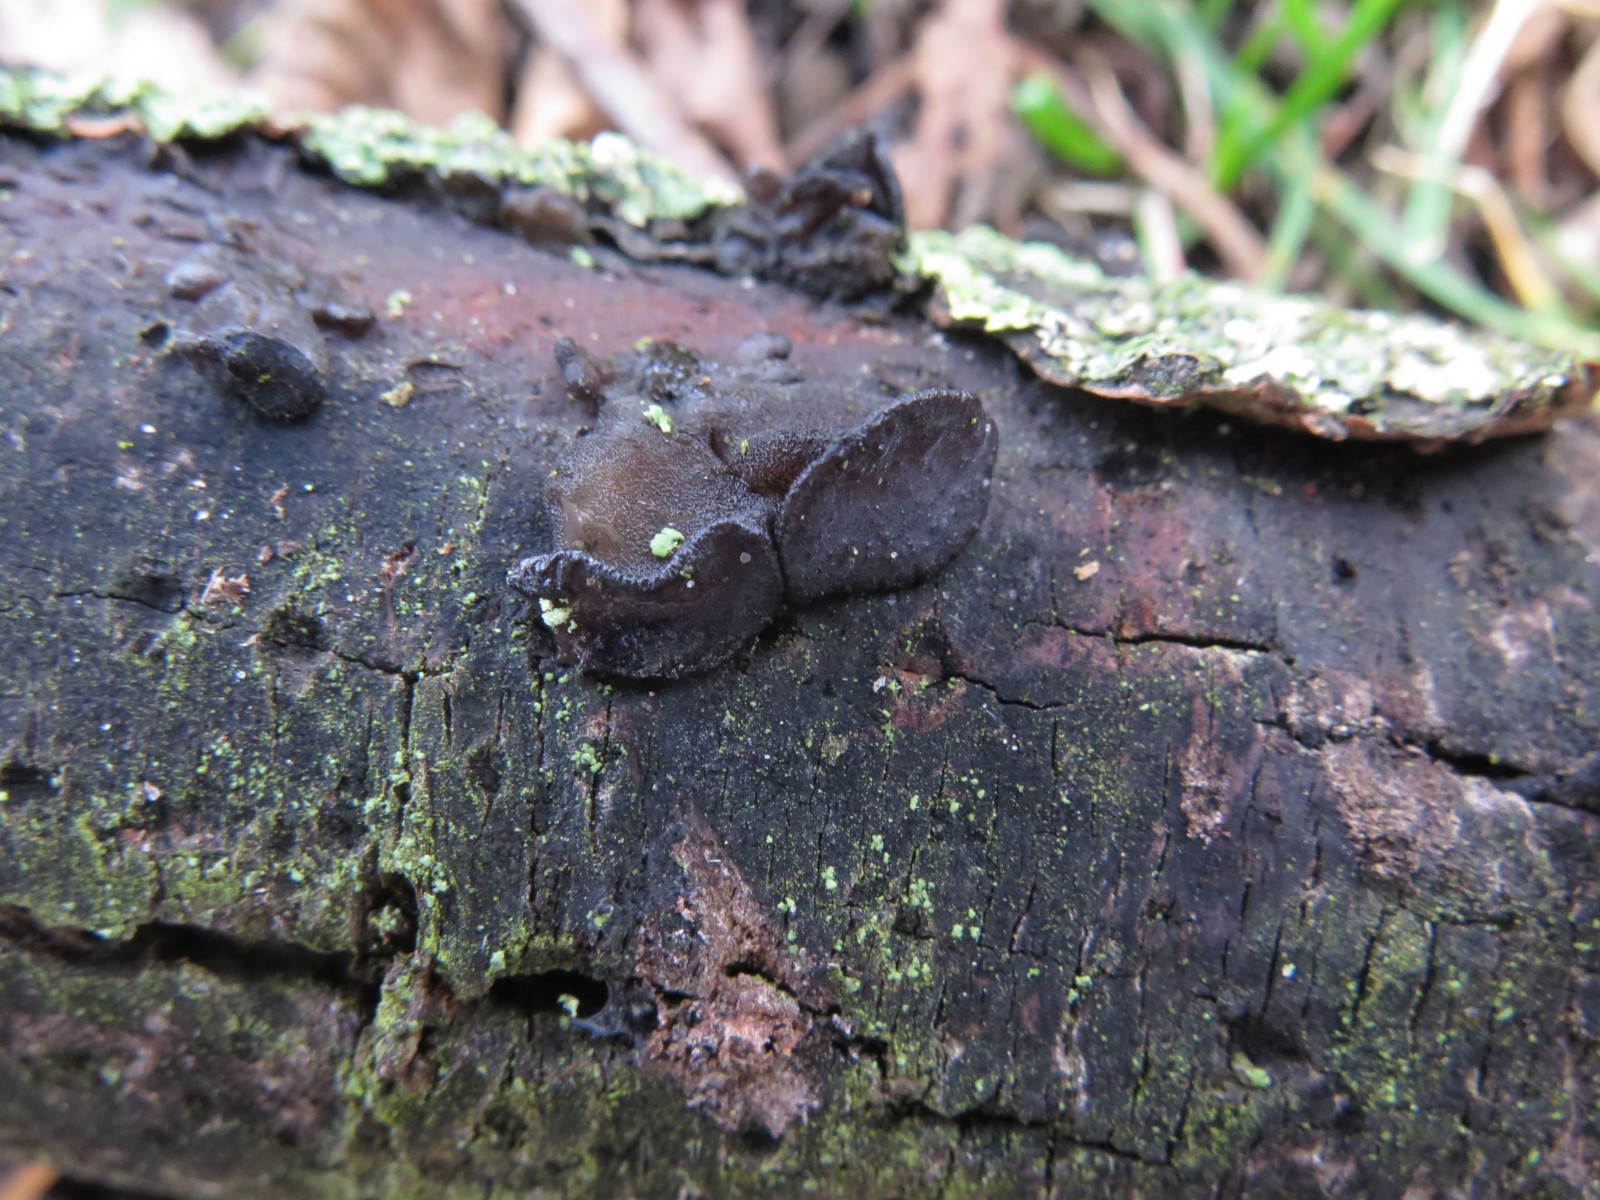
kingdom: Fungi
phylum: Basidiomycota
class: Agaricomycetes
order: Auriculariales
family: Auriculariaceae
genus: Exidia
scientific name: Exidia nigricans
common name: almindelig bævretop
